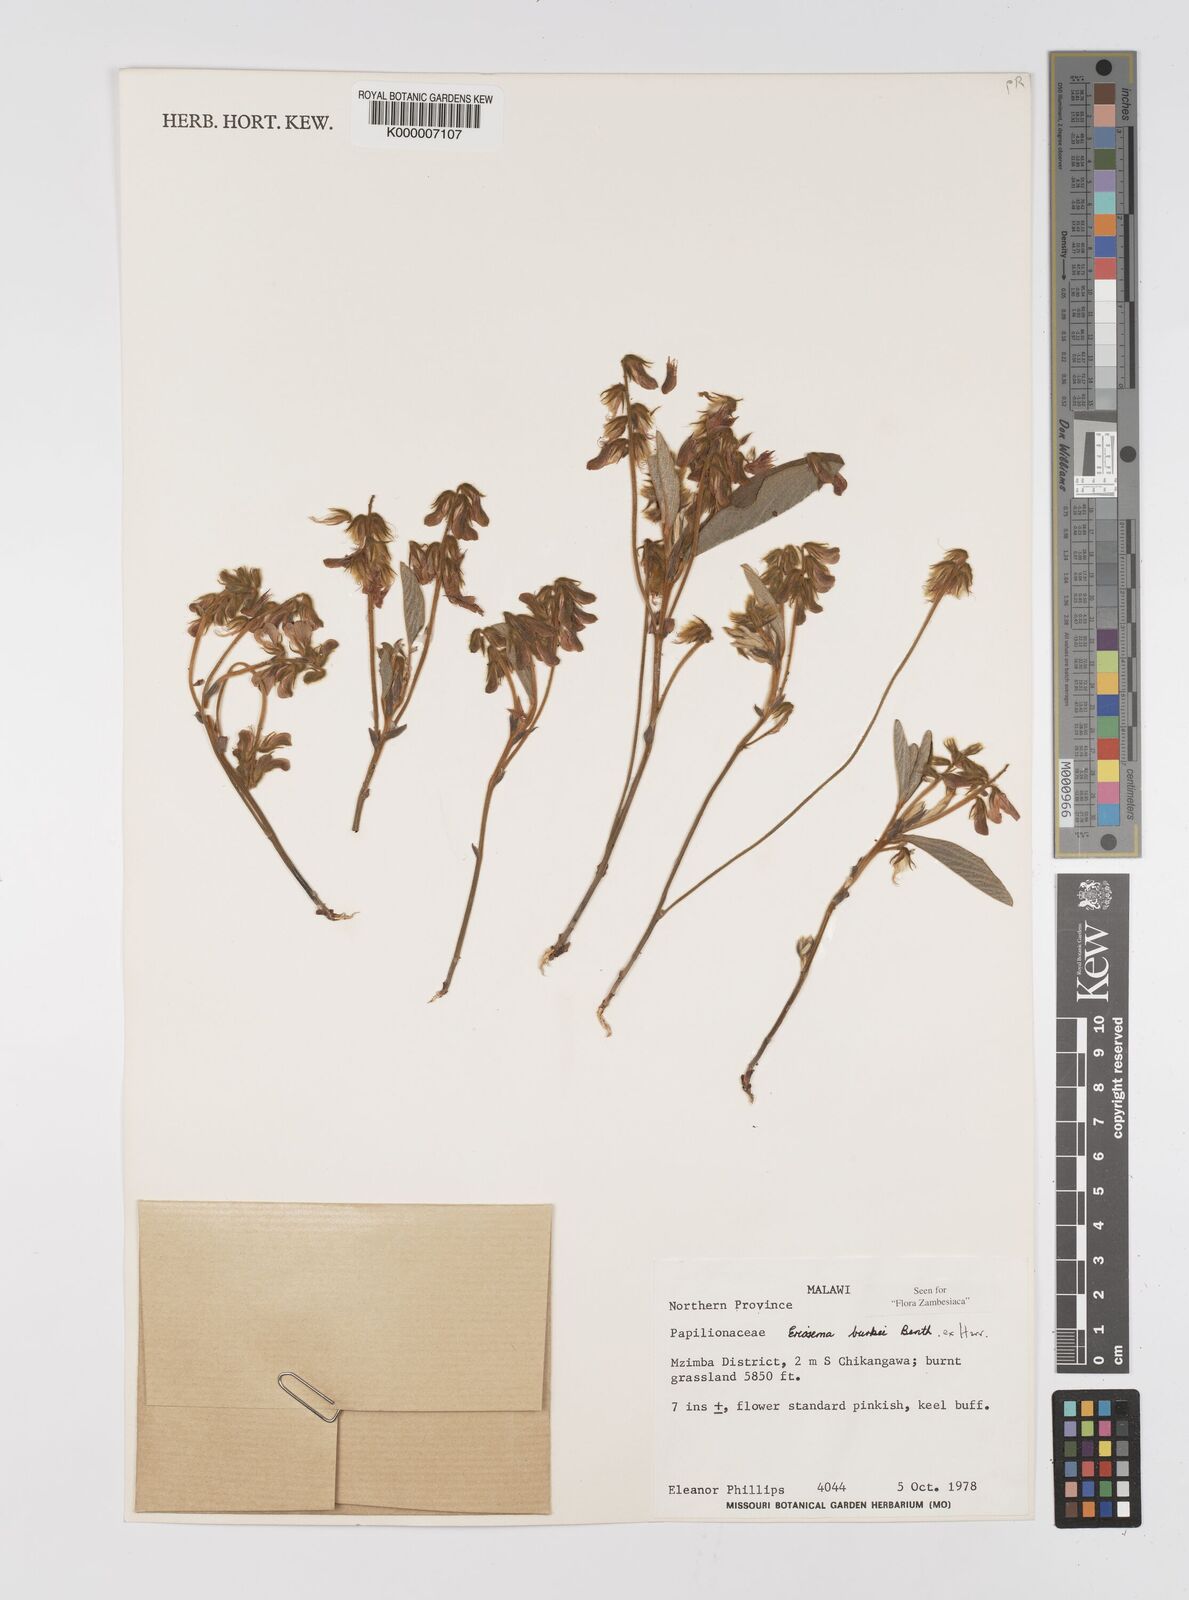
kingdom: Plantae
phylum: Tracheophyta
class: Magnoliopsida
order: Fabales
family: Fabaceae
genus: Eriosema
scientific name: Eriosema burkei
